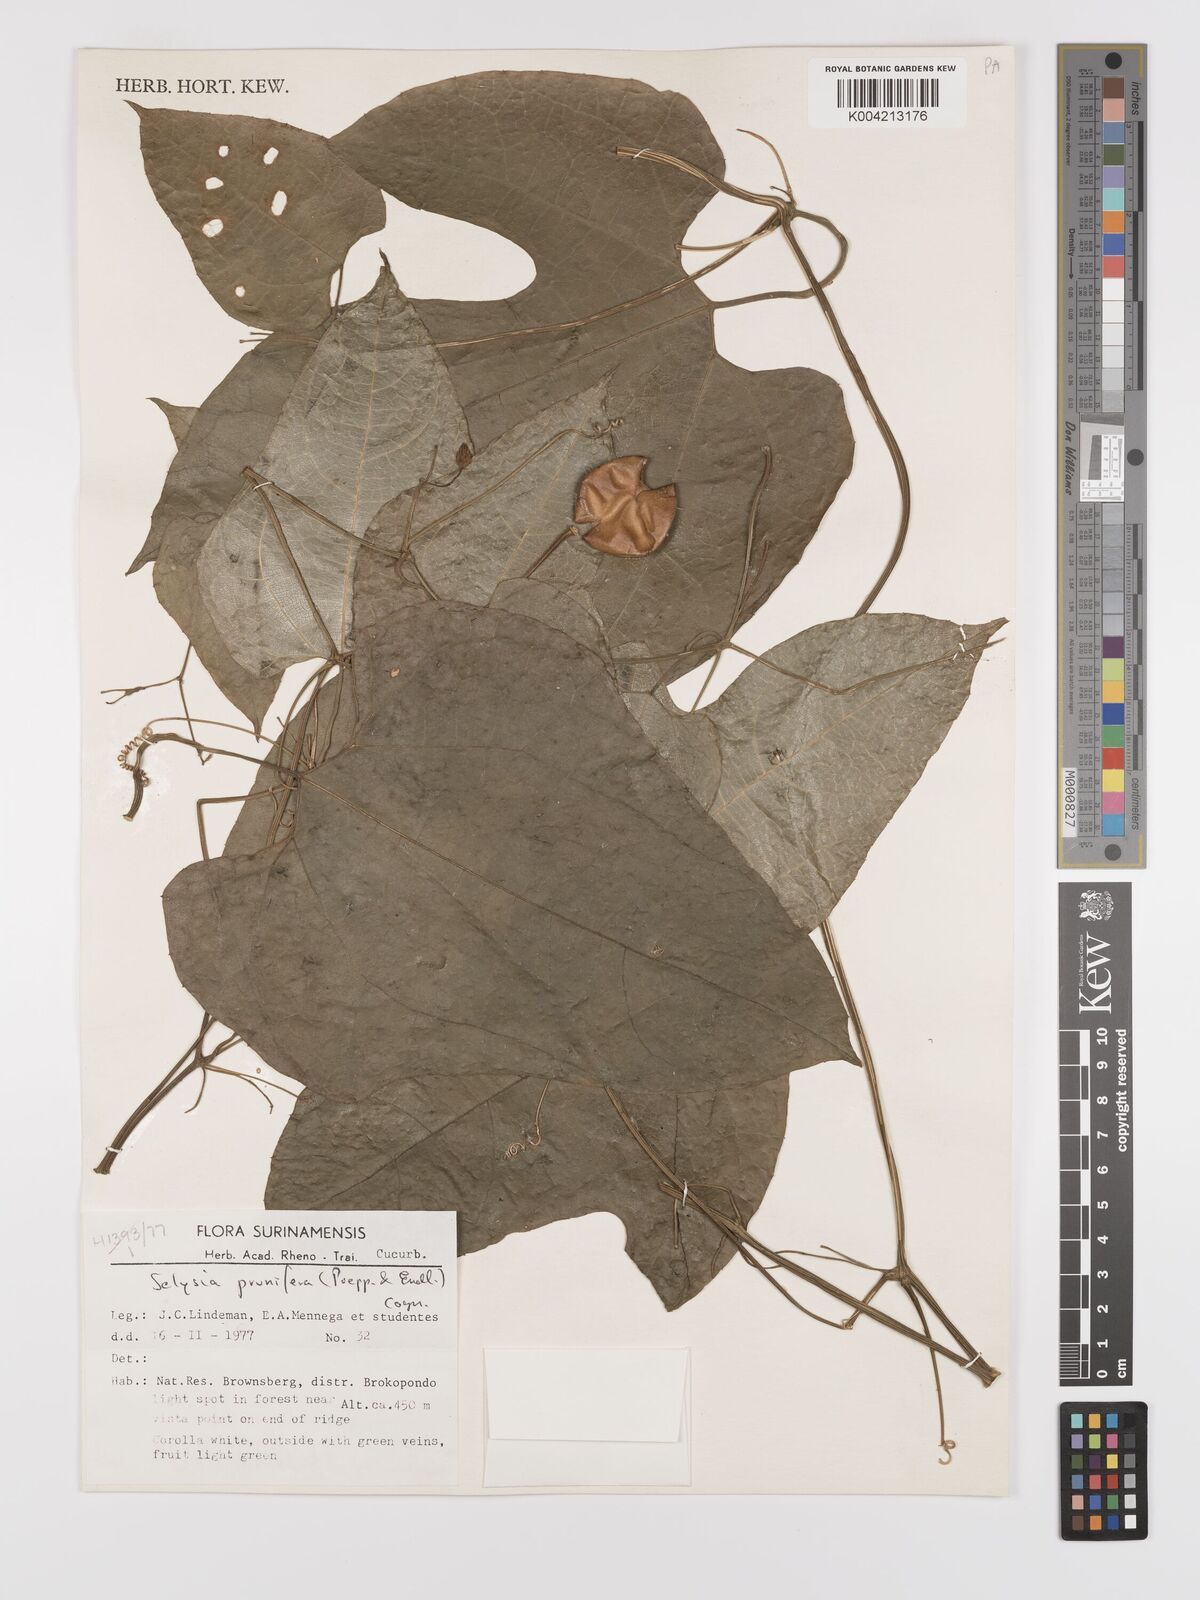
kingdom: Plantae
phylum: Tracheophyta
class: Magnoliopsida
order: Cucurbitales
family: Cucurbitaceae
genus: Cayaponia
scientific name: Cayaponia prunifera
